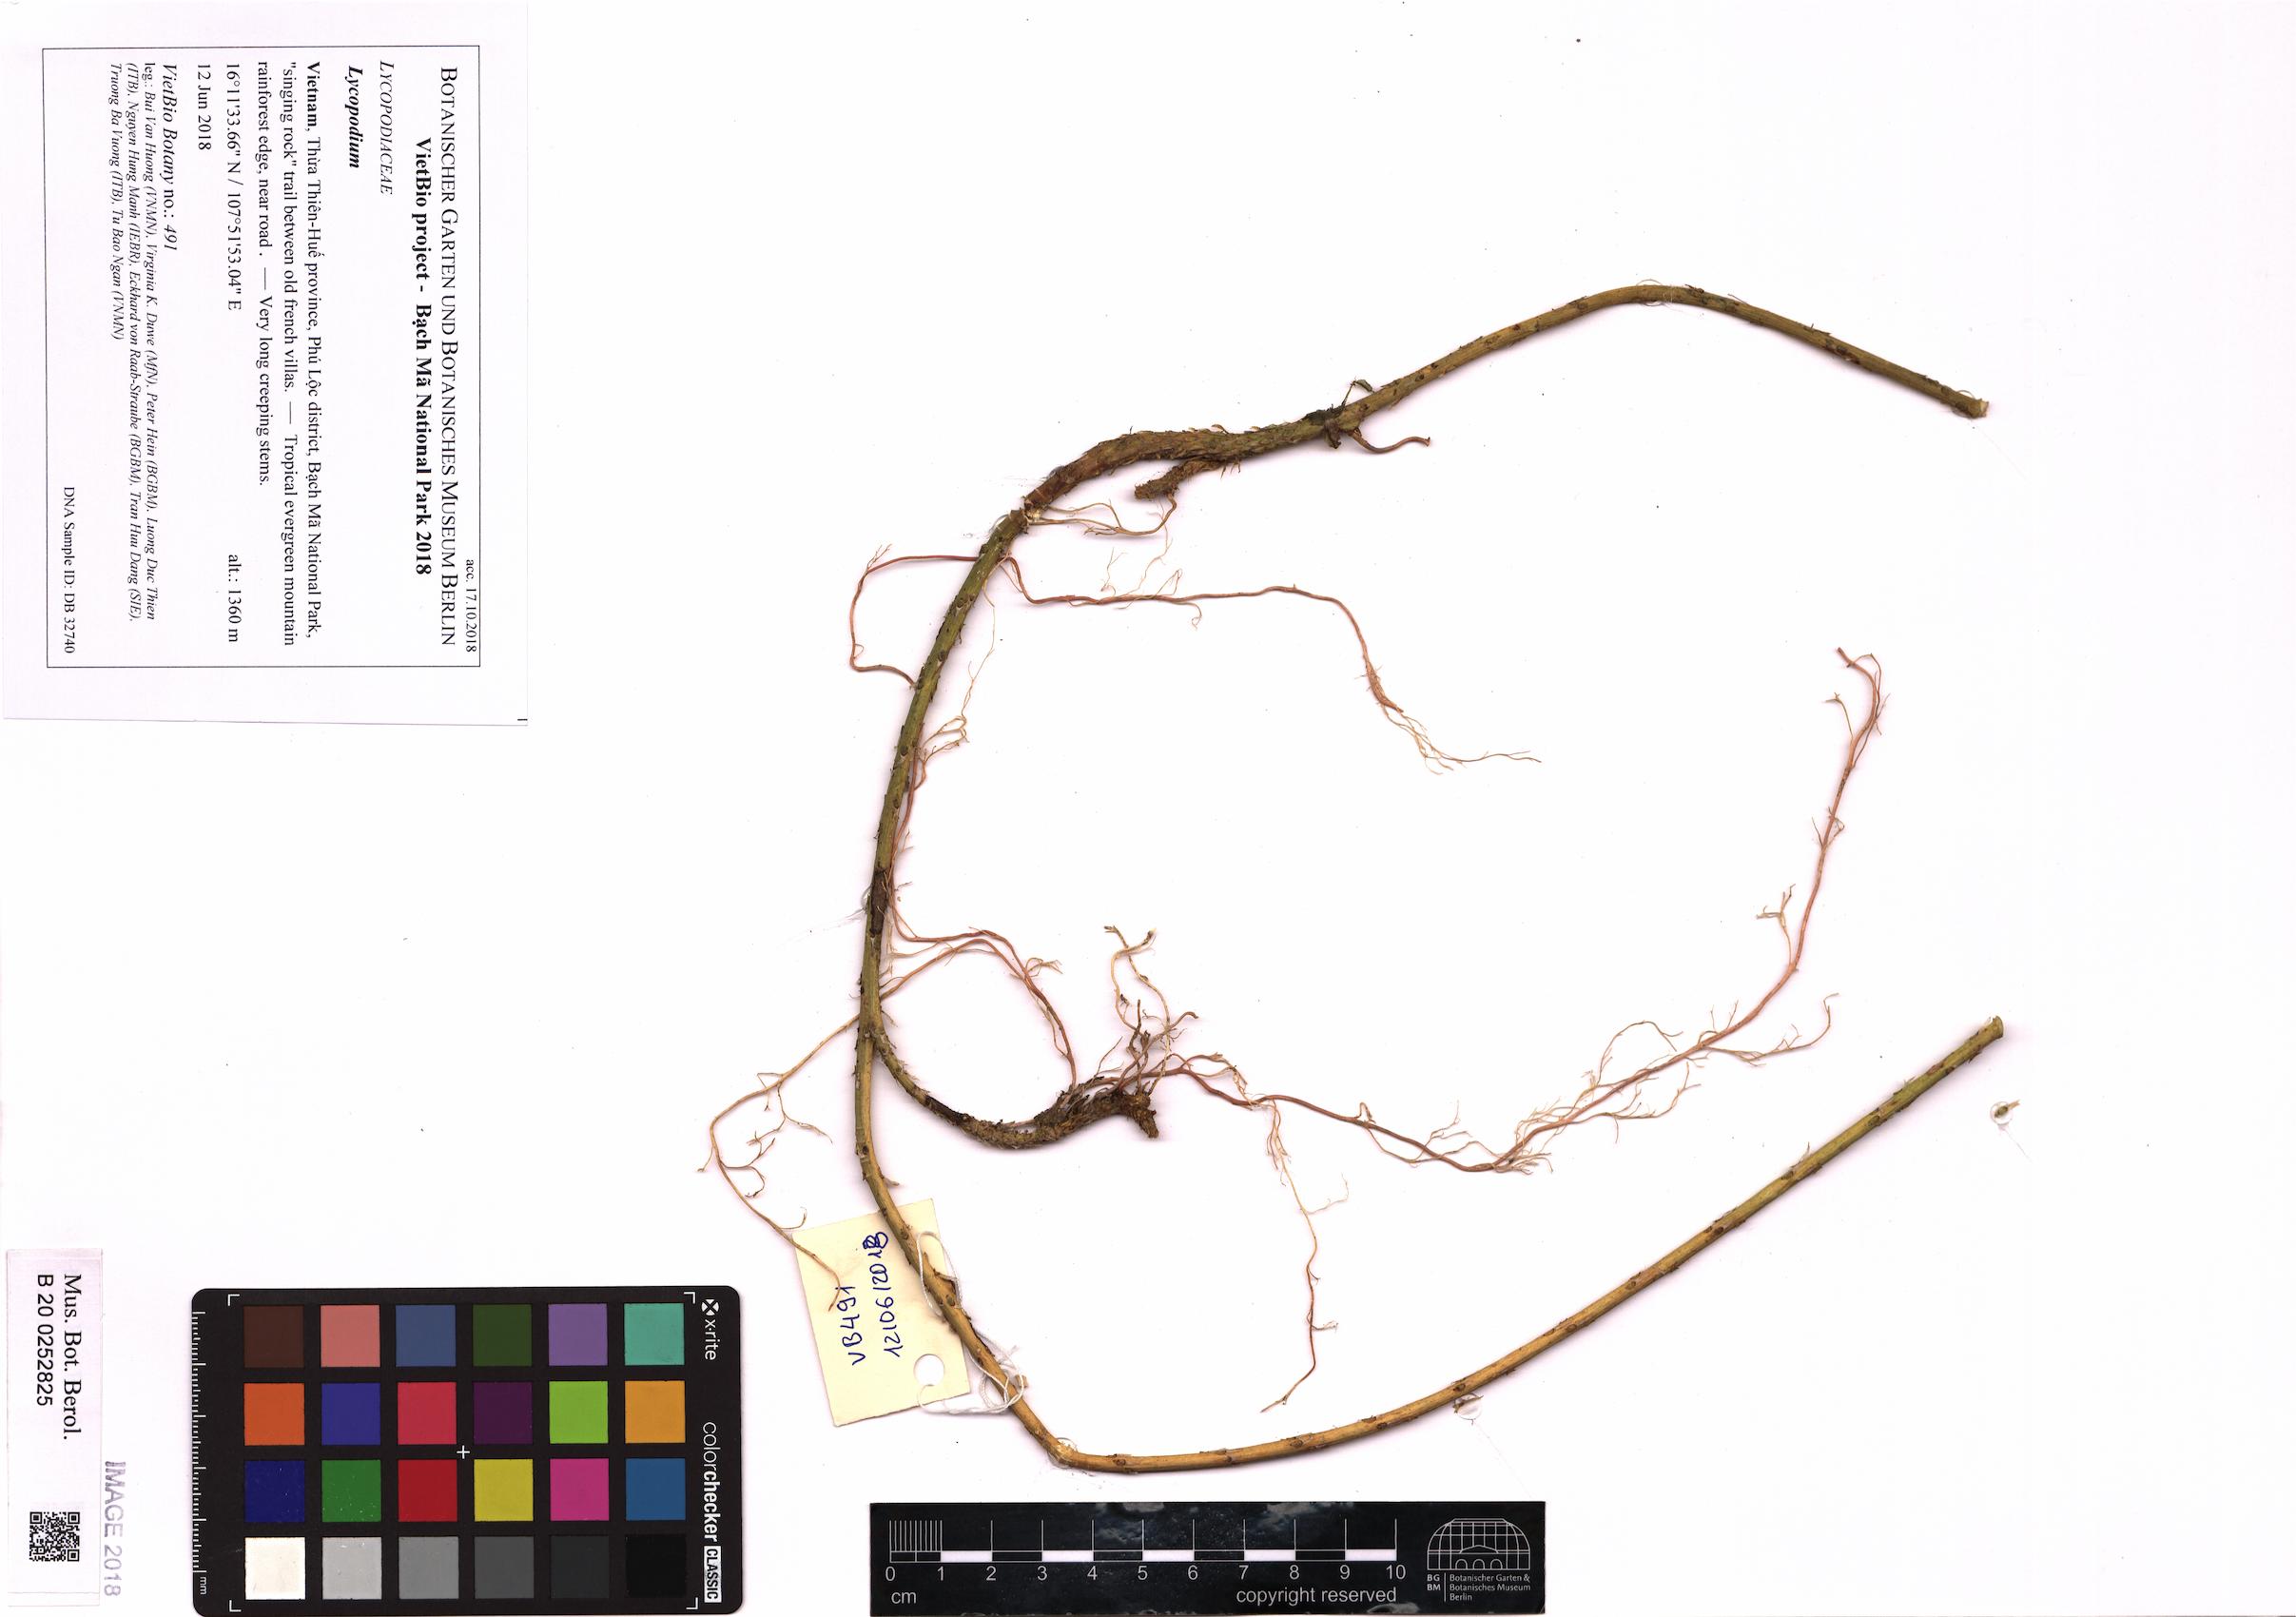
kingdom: Plantae
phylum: Tracheophyta
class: Lycopodiopsida
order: Lycopodiales
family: Lycopodiaceae
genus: Lycopodium
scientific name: Lycopodium
